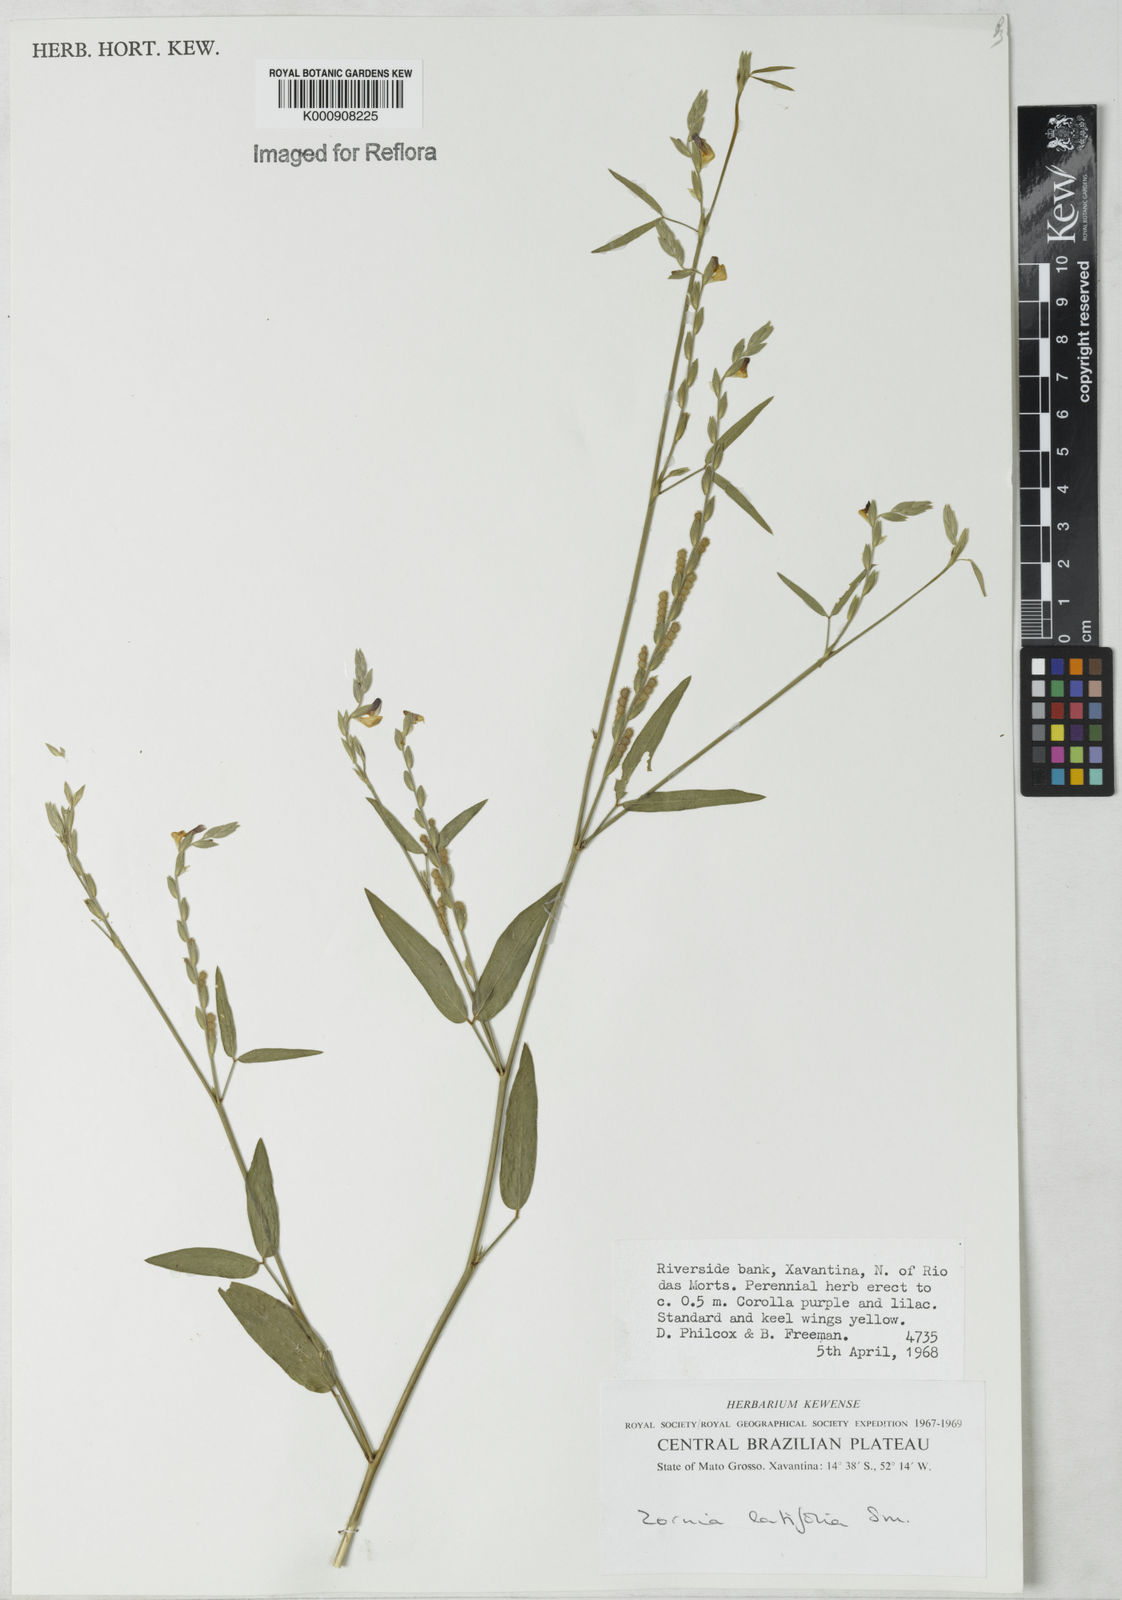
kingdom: Plantae
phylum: Tracheophyta
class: Magnoliopsida
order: Fabales
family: Fabaceae
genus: Zornia
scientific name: Zornia latifolia
